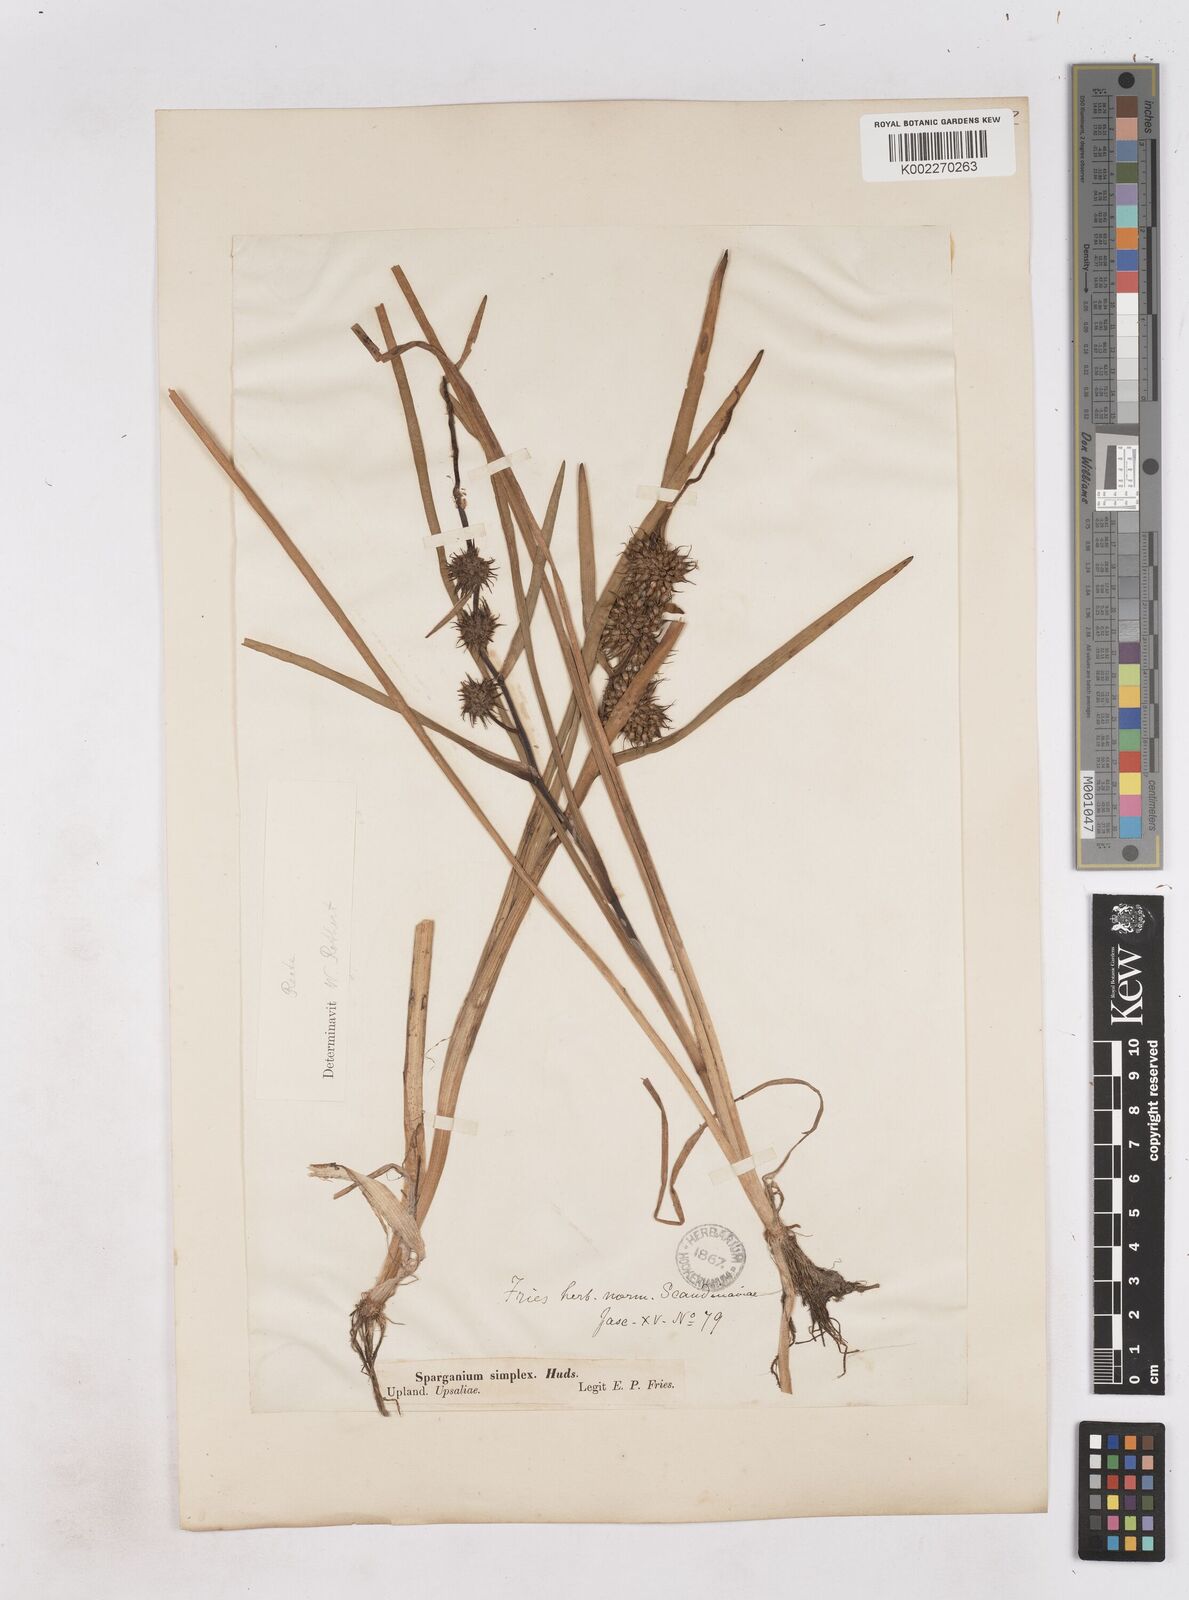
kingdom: Plantae
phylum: Tracheophyta
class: Liliopsida
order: Poales
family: Typhaceae
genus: Sparganium
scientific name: Sparganium emersum
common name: Unbranched bur-reed
